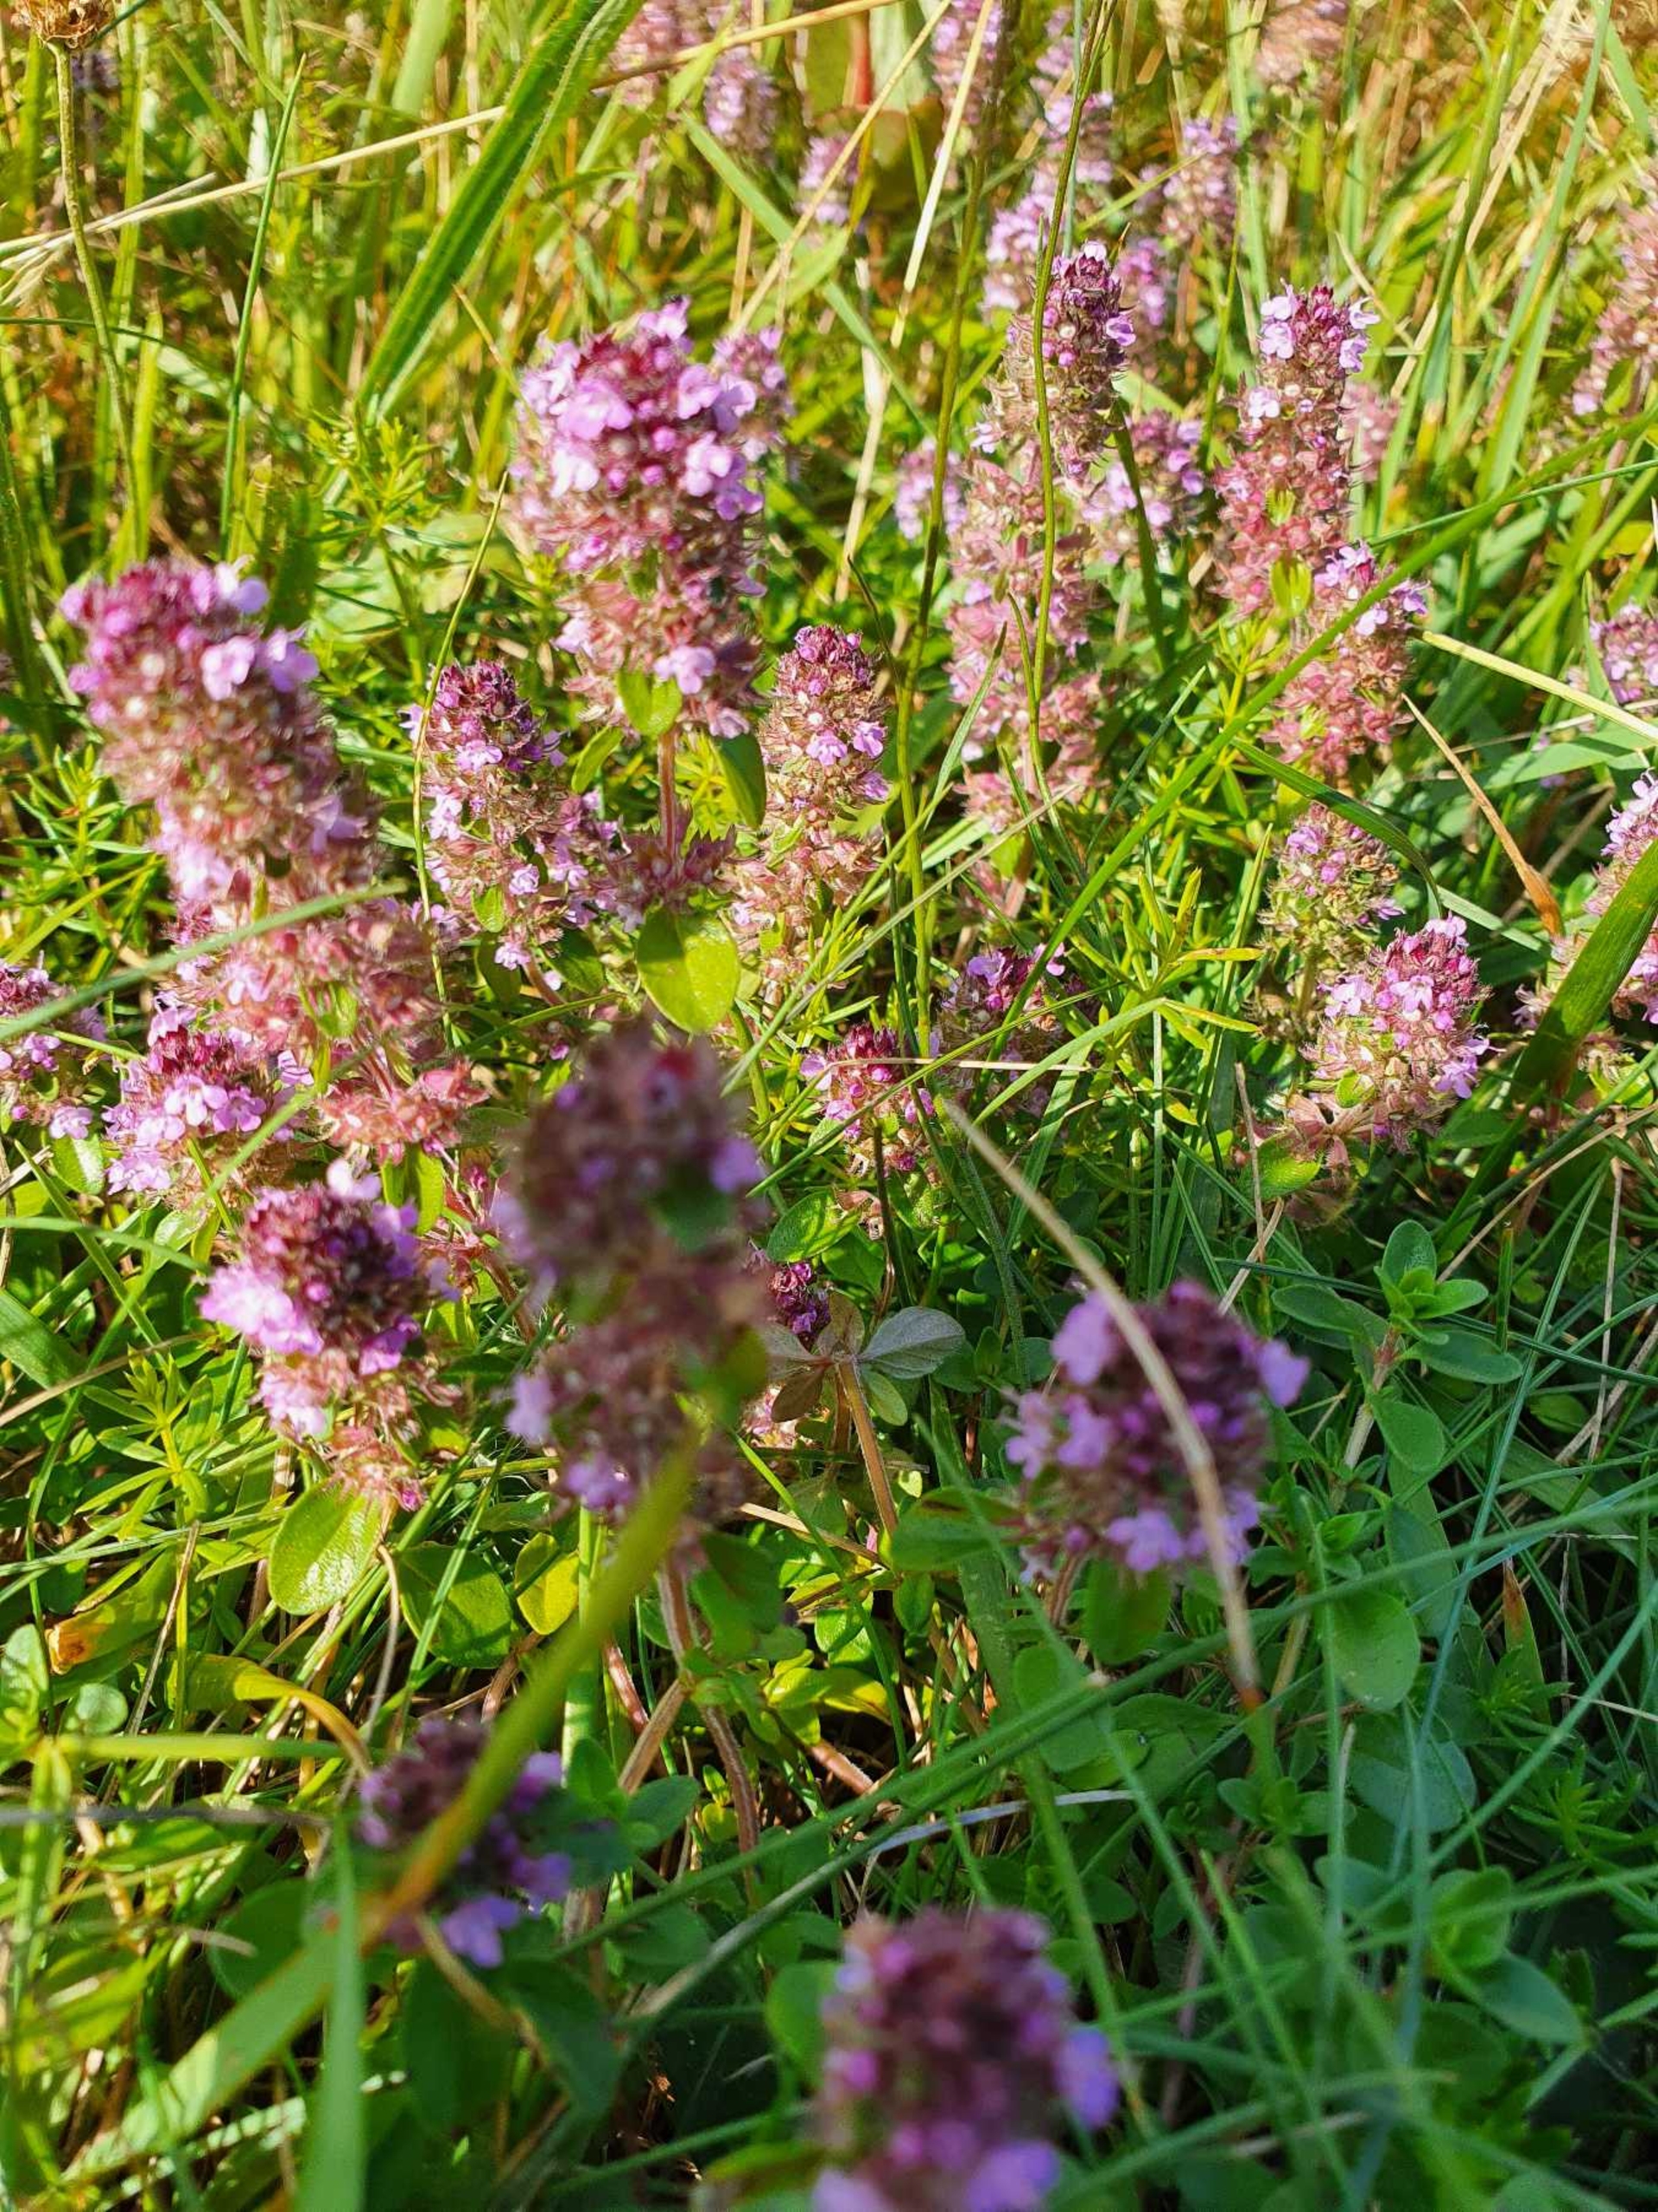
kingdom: Plantae
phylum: Tracheophyta
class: Magnoliopsida
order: Lamiales
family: Lamiaceae
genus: Thymus
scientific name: Thymus pulegioides
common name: Bredbladet timian
